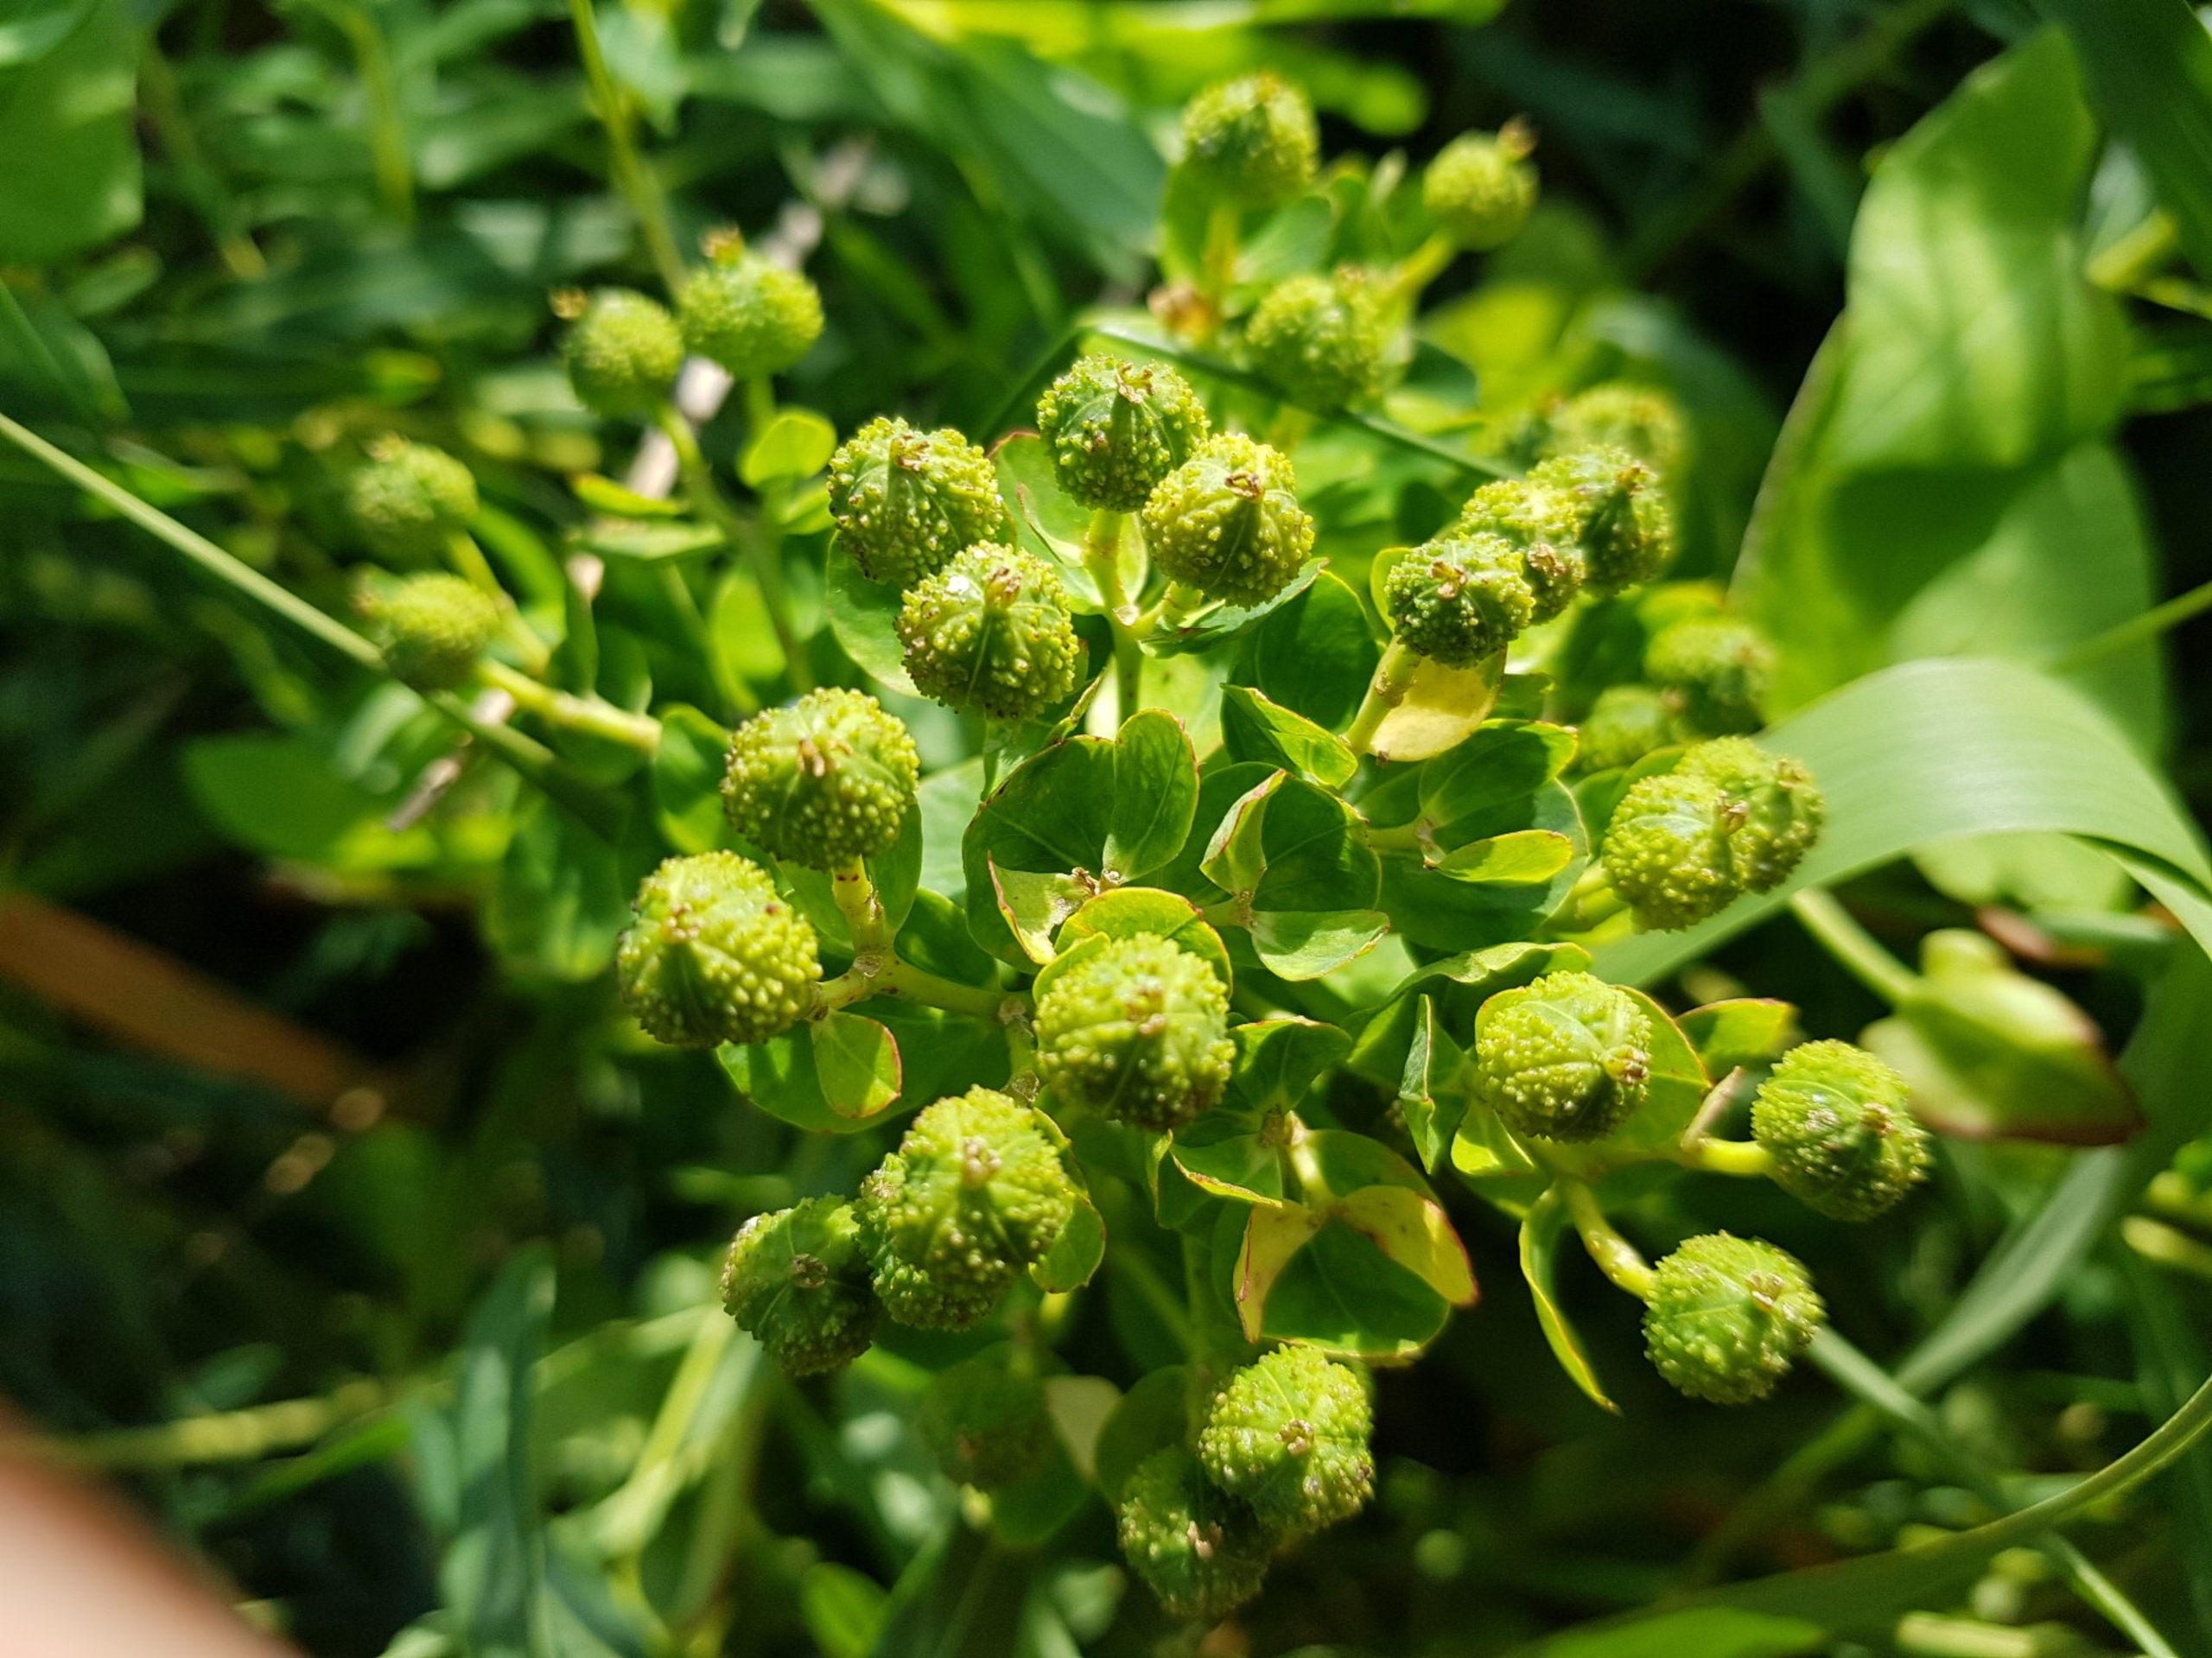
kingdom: Plantae
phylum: Tracheophyta
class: Magnoliopsida
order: Malpighiales
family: Euphorbiaceae
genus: Euphorbia
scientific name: Euphorbia palustris
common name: Strand-vortemælk
